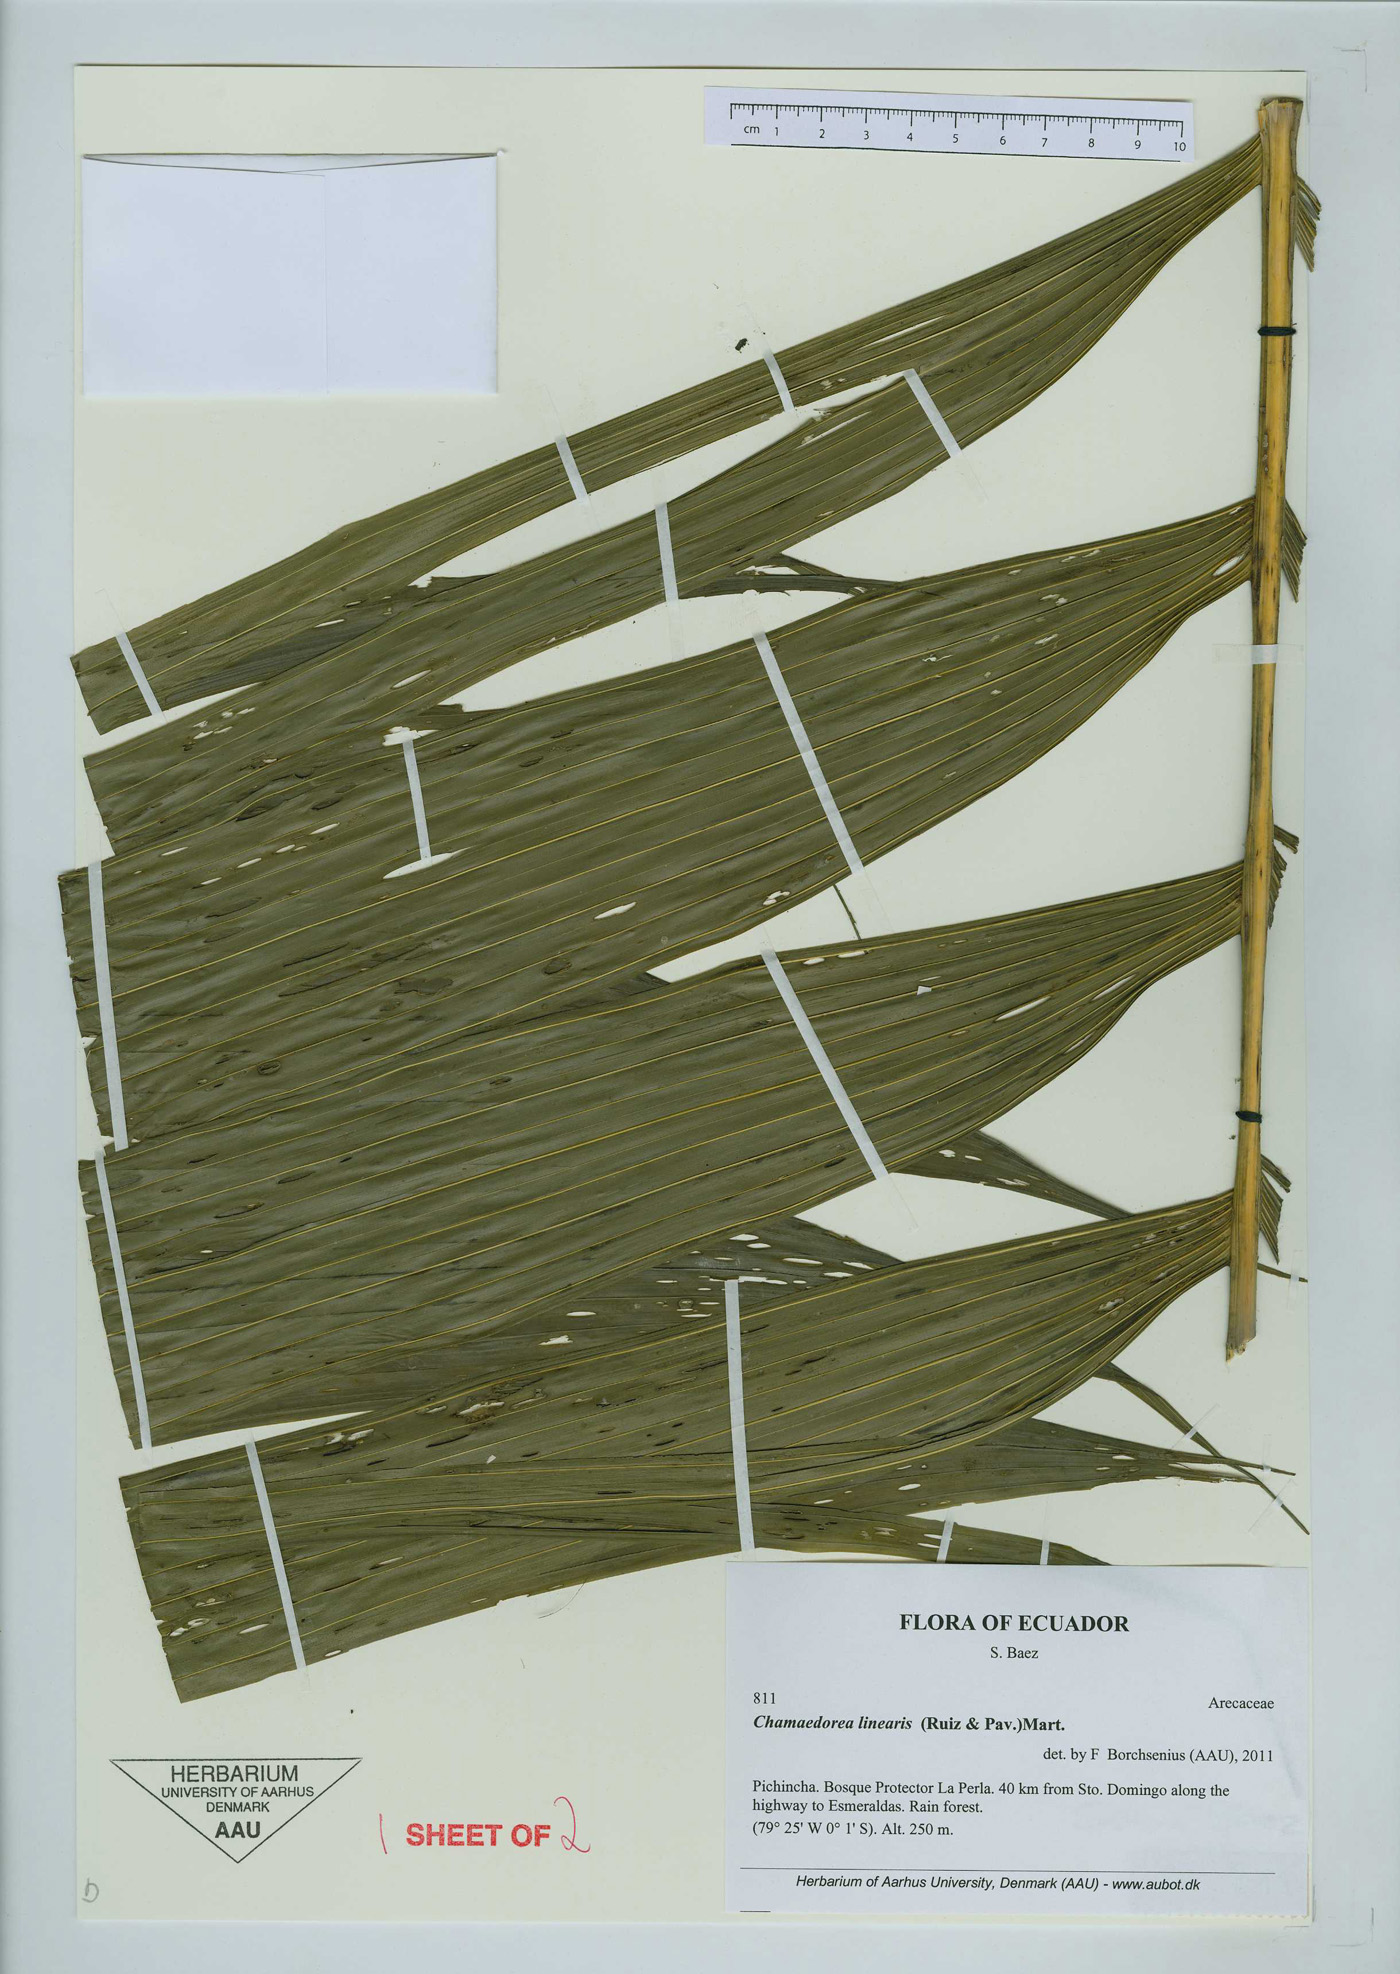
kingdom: Plantae
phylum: Tracheophyta
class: Liliopsida
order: Arecales
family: Arecaceae
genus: Chamaedorea
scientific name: Chamaedorea linearis
